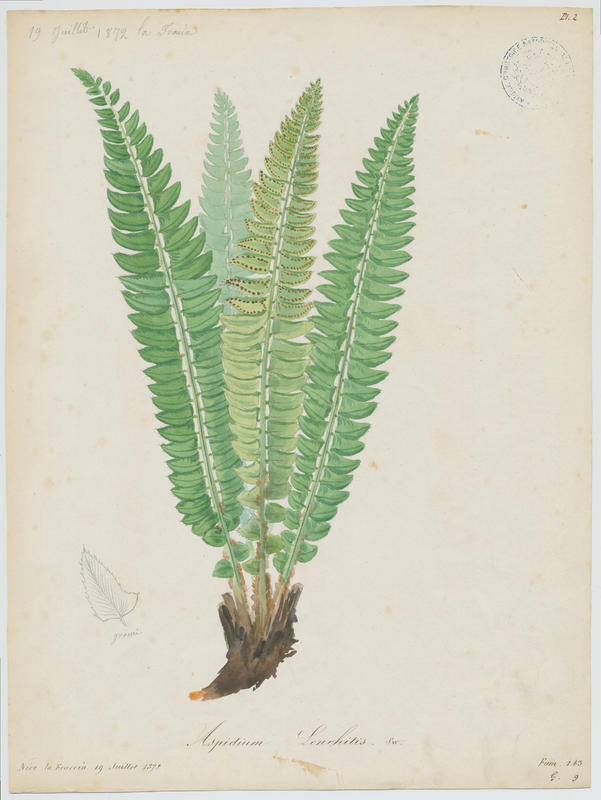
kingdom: Plantae
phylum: Tracheophyta
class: Polypodiopsida
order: Polypodiales
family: Dryopteridaceae
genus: Polystichum
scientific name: Polystichum lonchitis
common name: Holly fern
